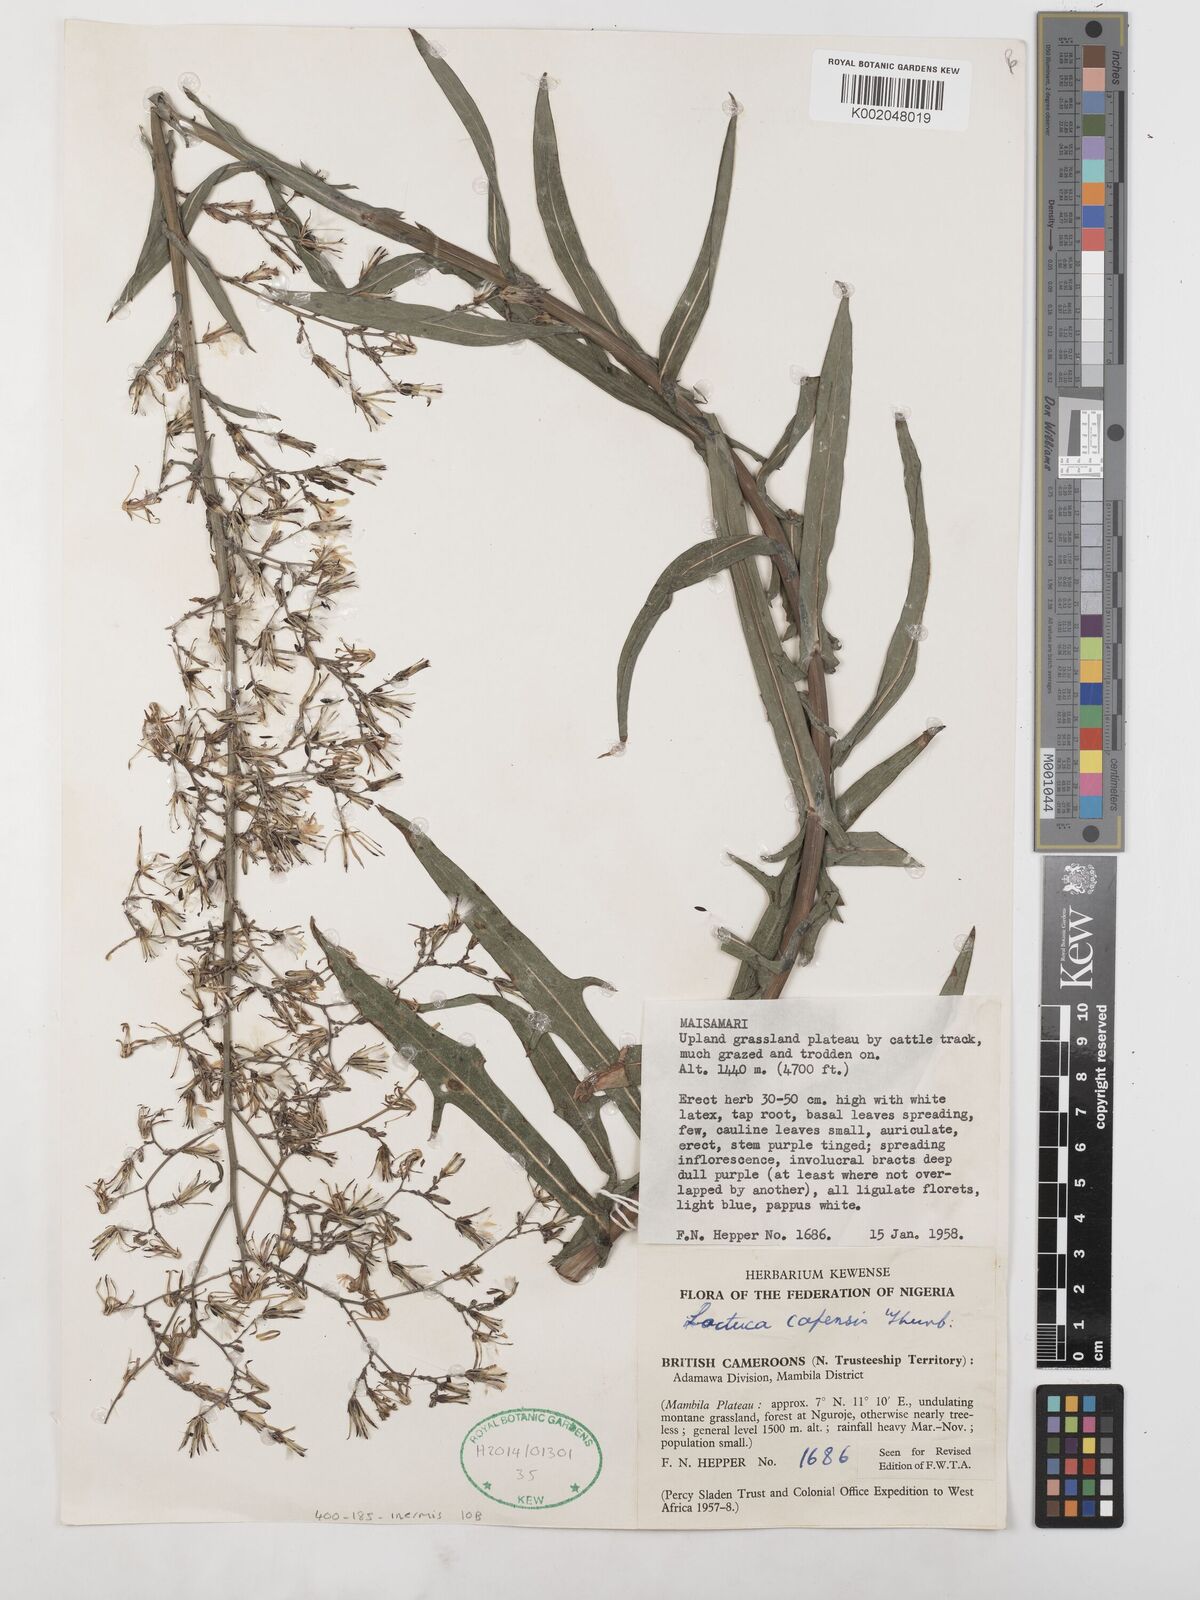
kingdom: Plantae
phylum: Tracheophyta
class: Magnoliopsida
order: Asterales
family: Asteraceae
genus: Lactuca
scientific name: Lactuca inermis
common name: Wild lettuce
